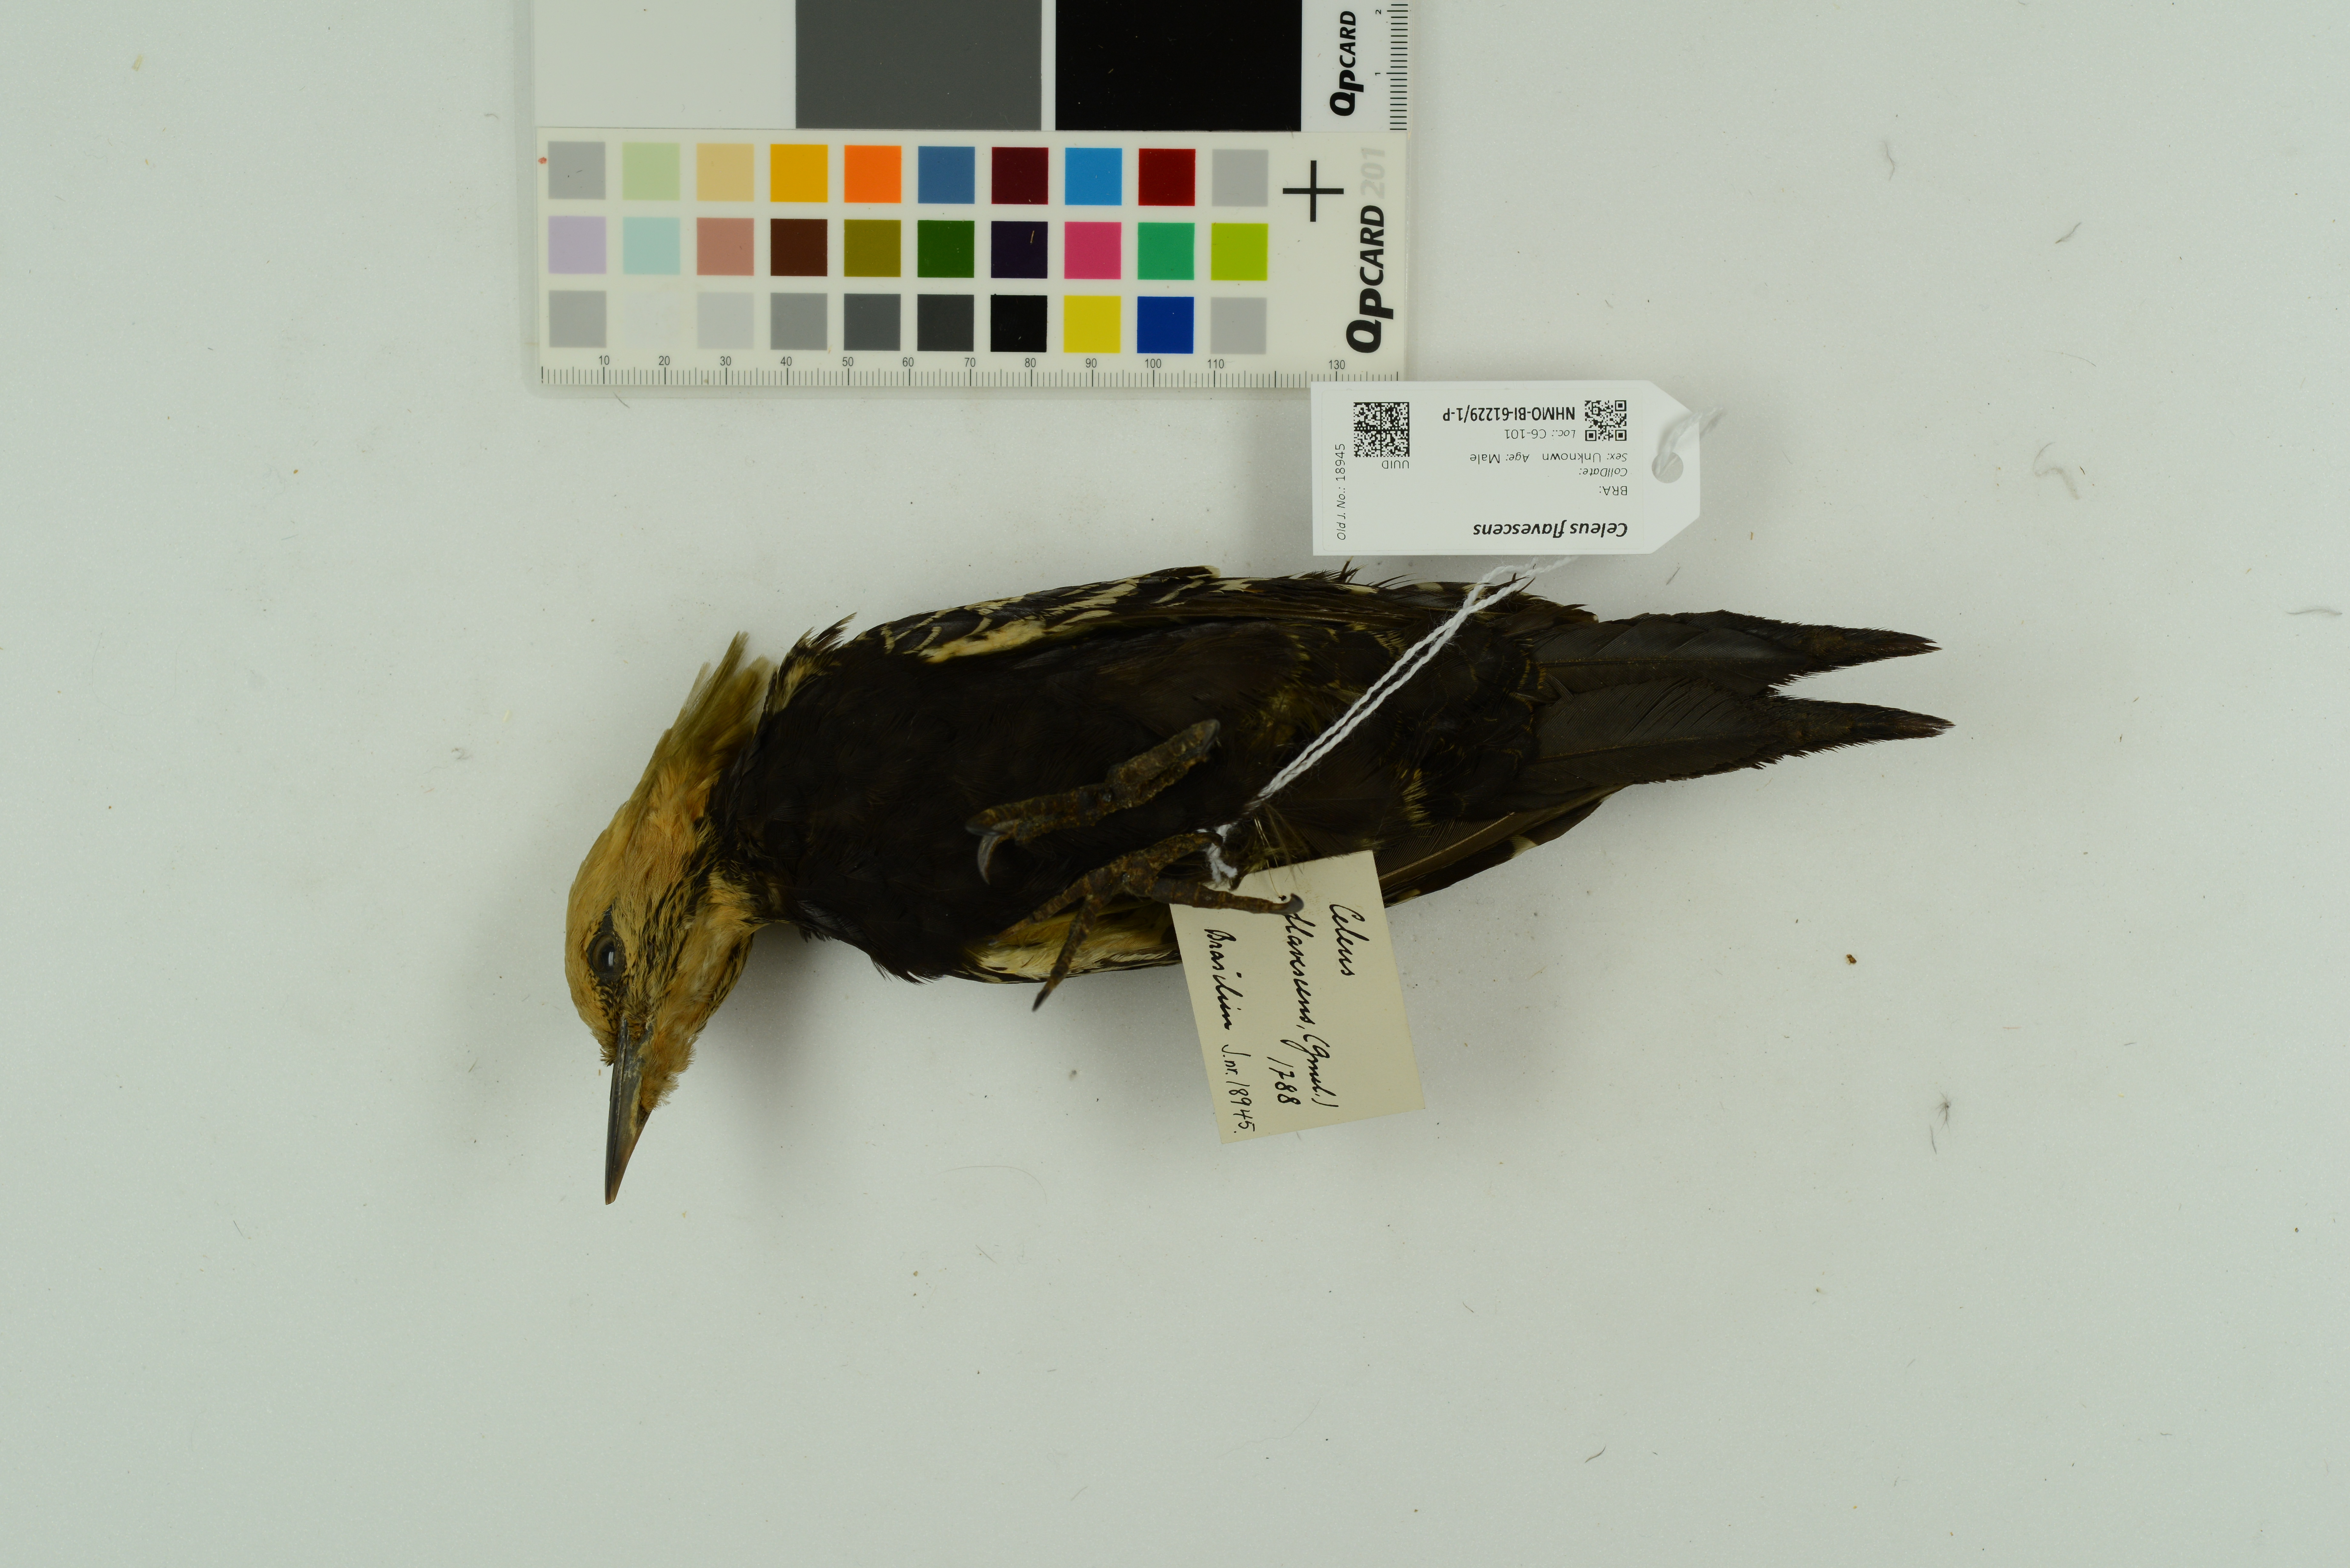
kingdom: Animalia
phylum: Chordata
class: Aves
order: Piciformes
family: Picidae
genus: Celeus
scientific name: Celeus flavescens
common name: Blond-crested woodpecker
